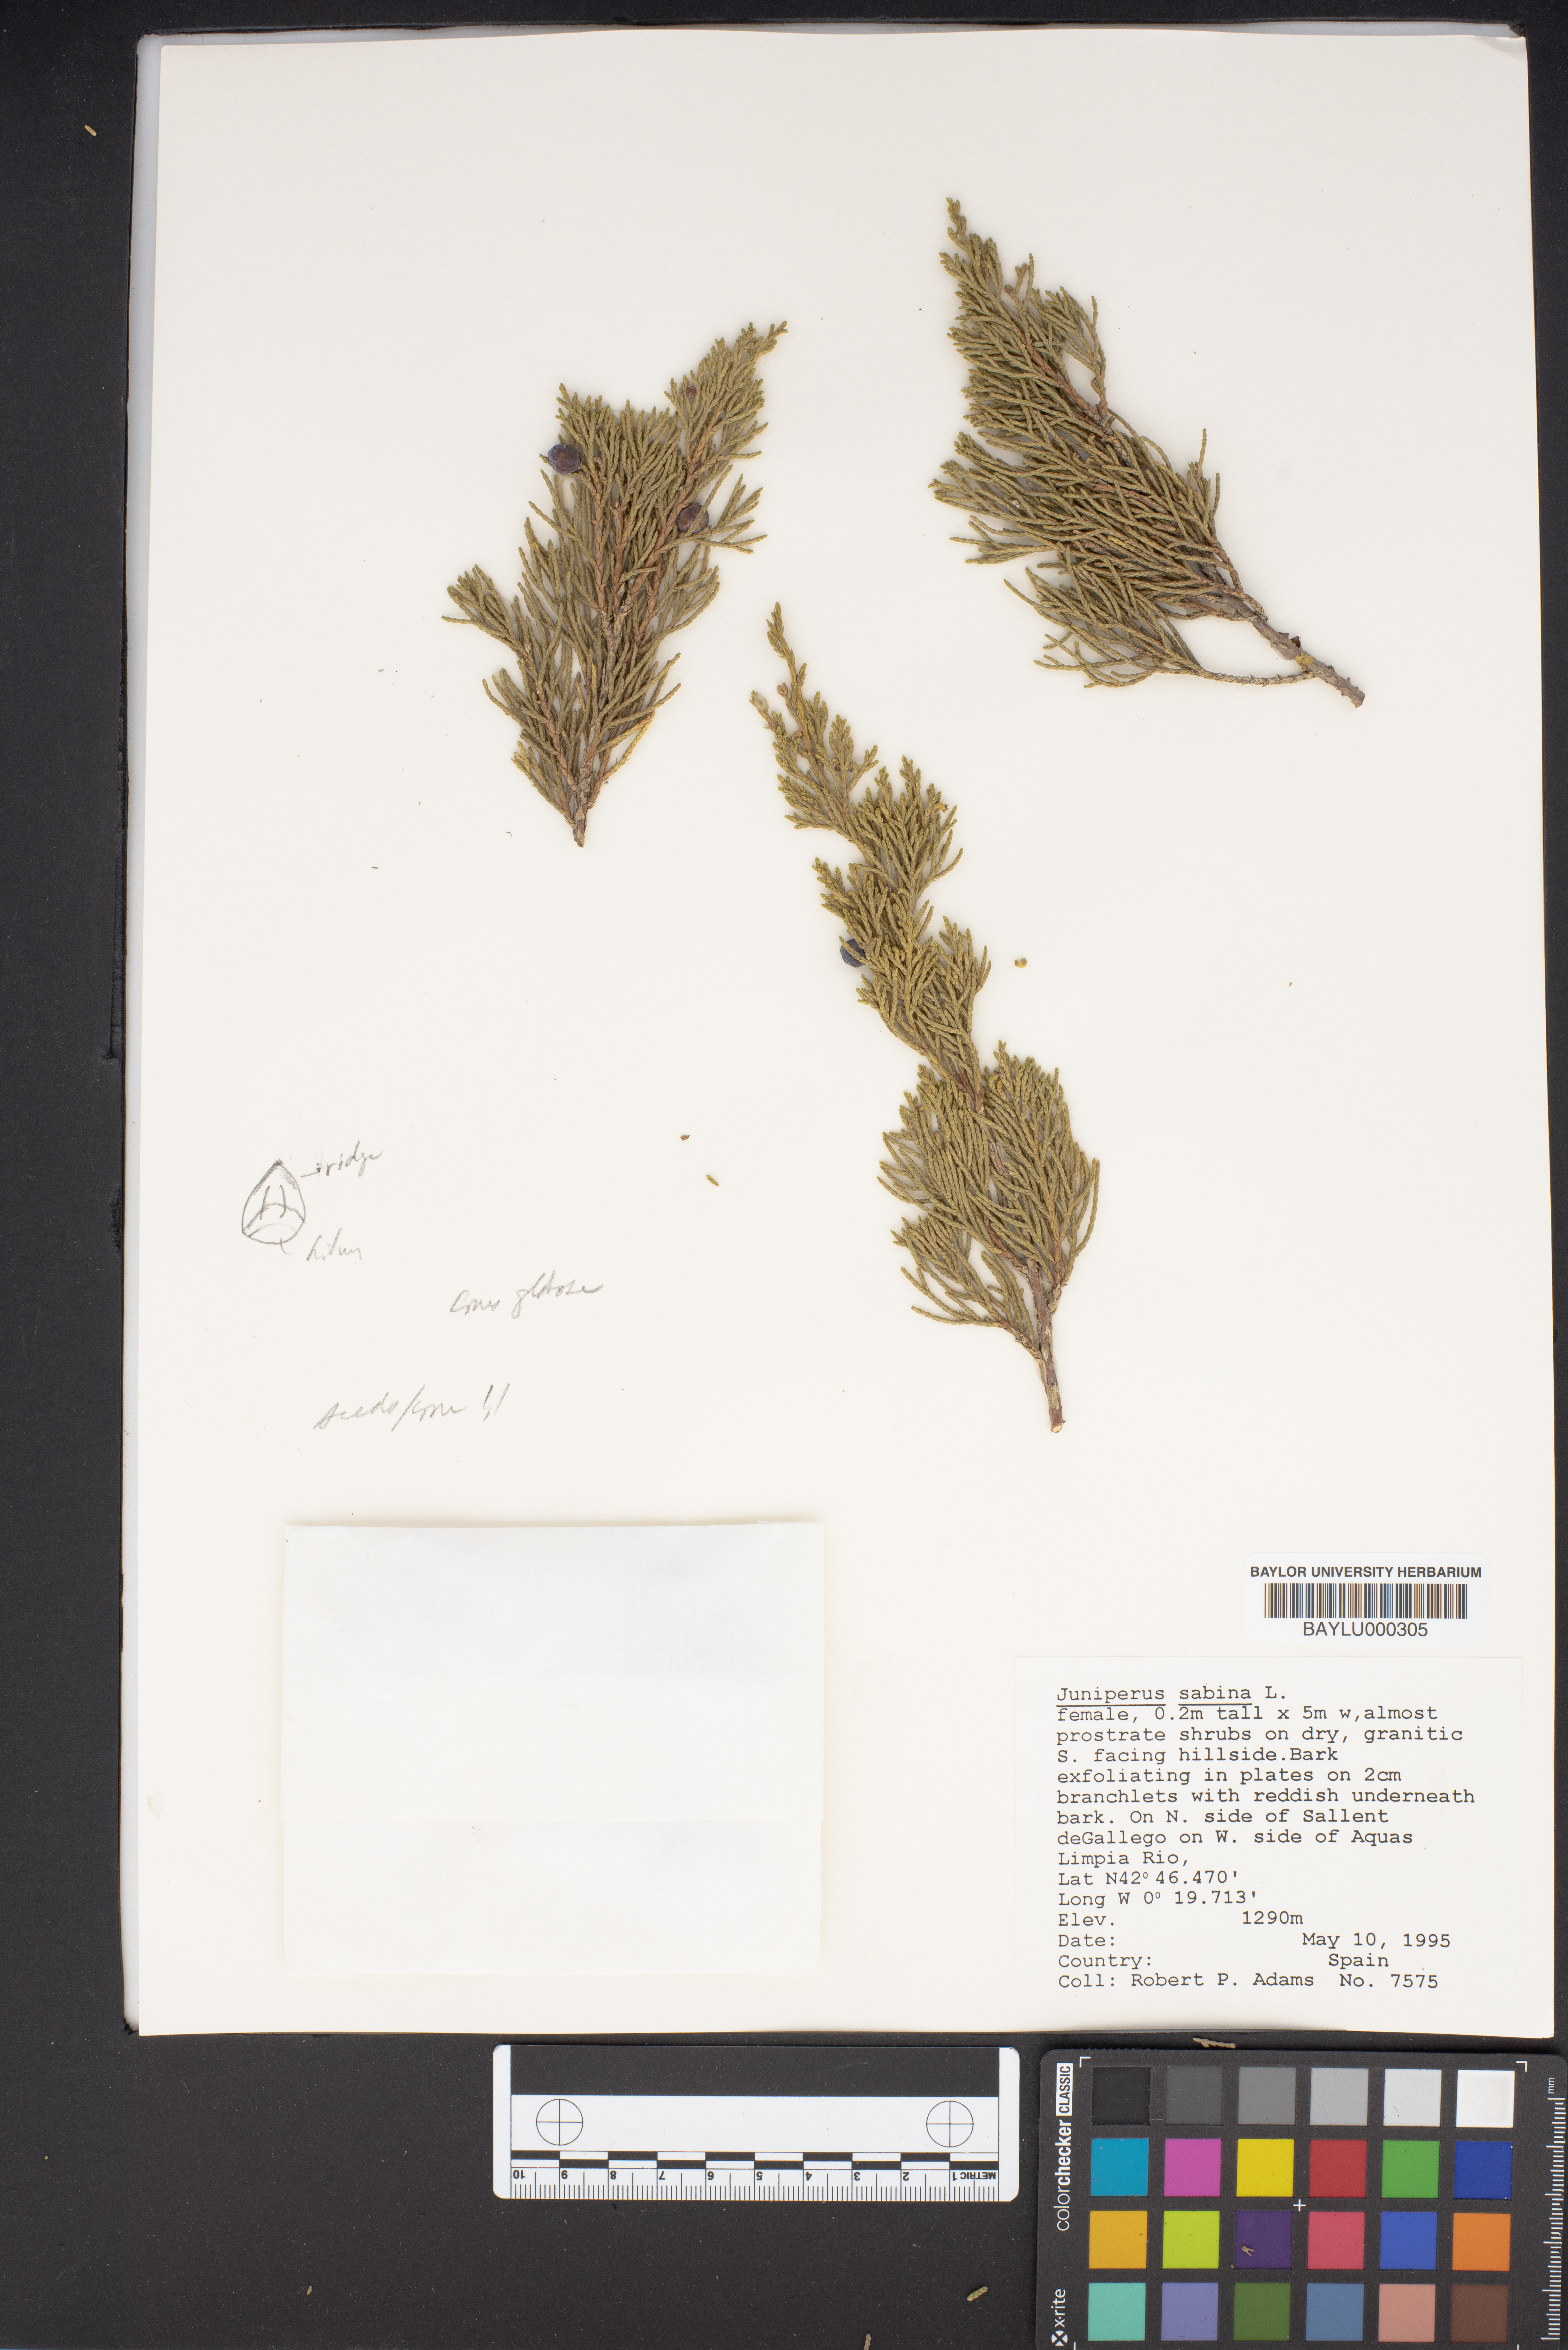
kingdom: Plantae
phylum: Tracheophyta
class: Pinopsida
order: Pinales
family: Cupressaceae
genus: Juniperus
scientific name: Juniperus sabina
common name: Savin
